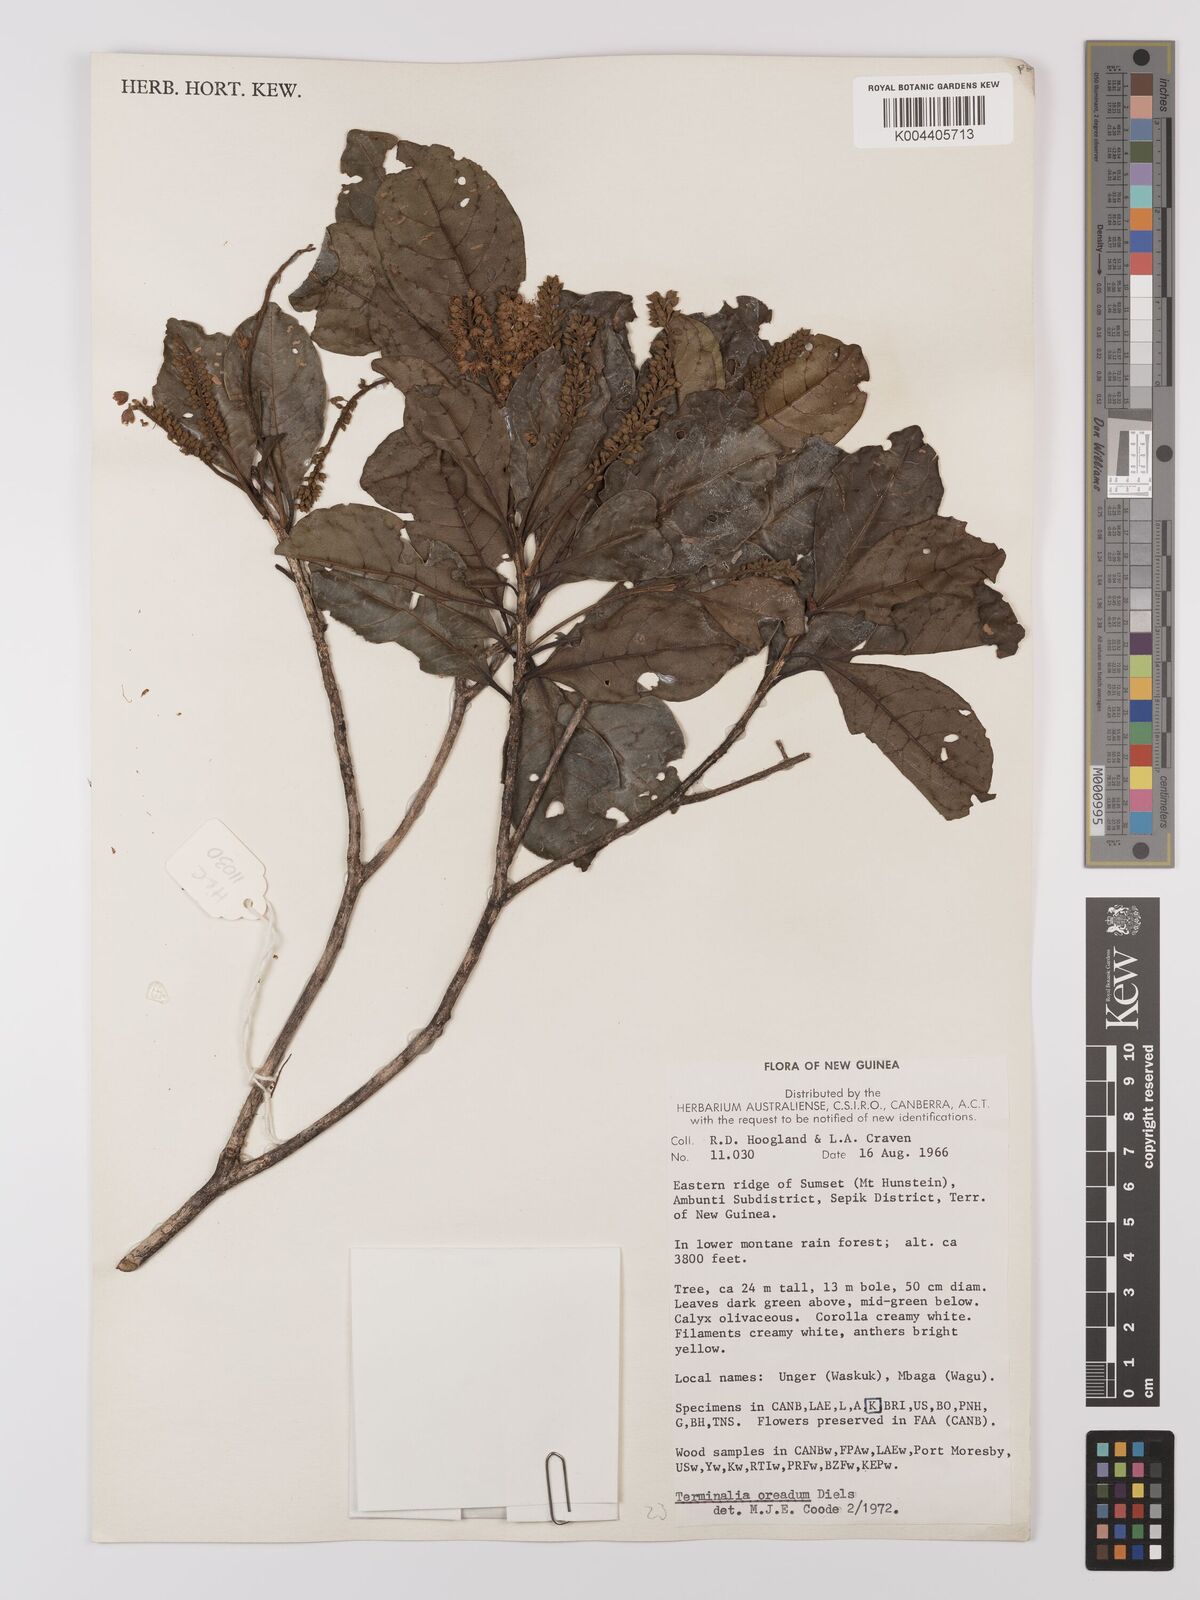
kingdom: Plantae
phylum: Tracheophyta
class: Magnoliopsida
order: Myrtales
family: Combretaceae
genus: Terminalia
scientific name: Terminalia oreadum
